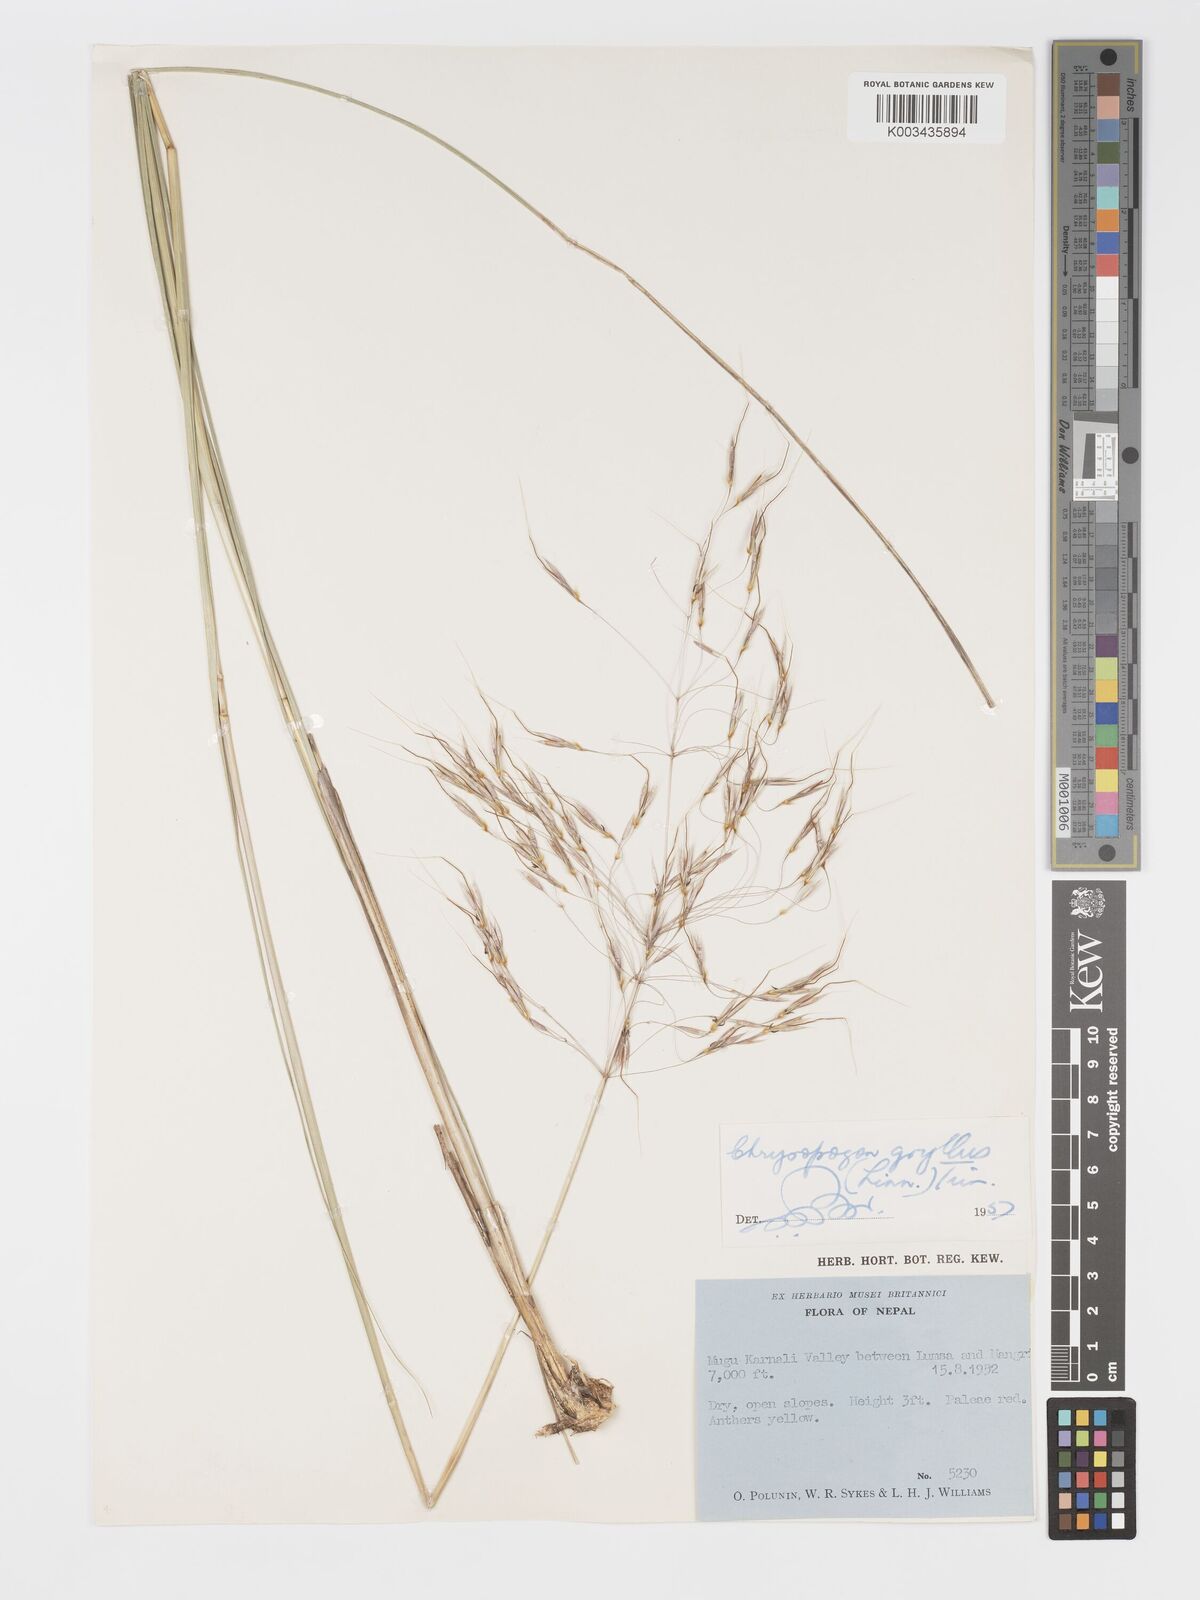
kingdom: Plantae
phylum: Tracheophyta
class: Liliopsida
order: Poales
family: Poaceae
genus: Chrysopogon
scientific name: Chrysopogon gryllus
